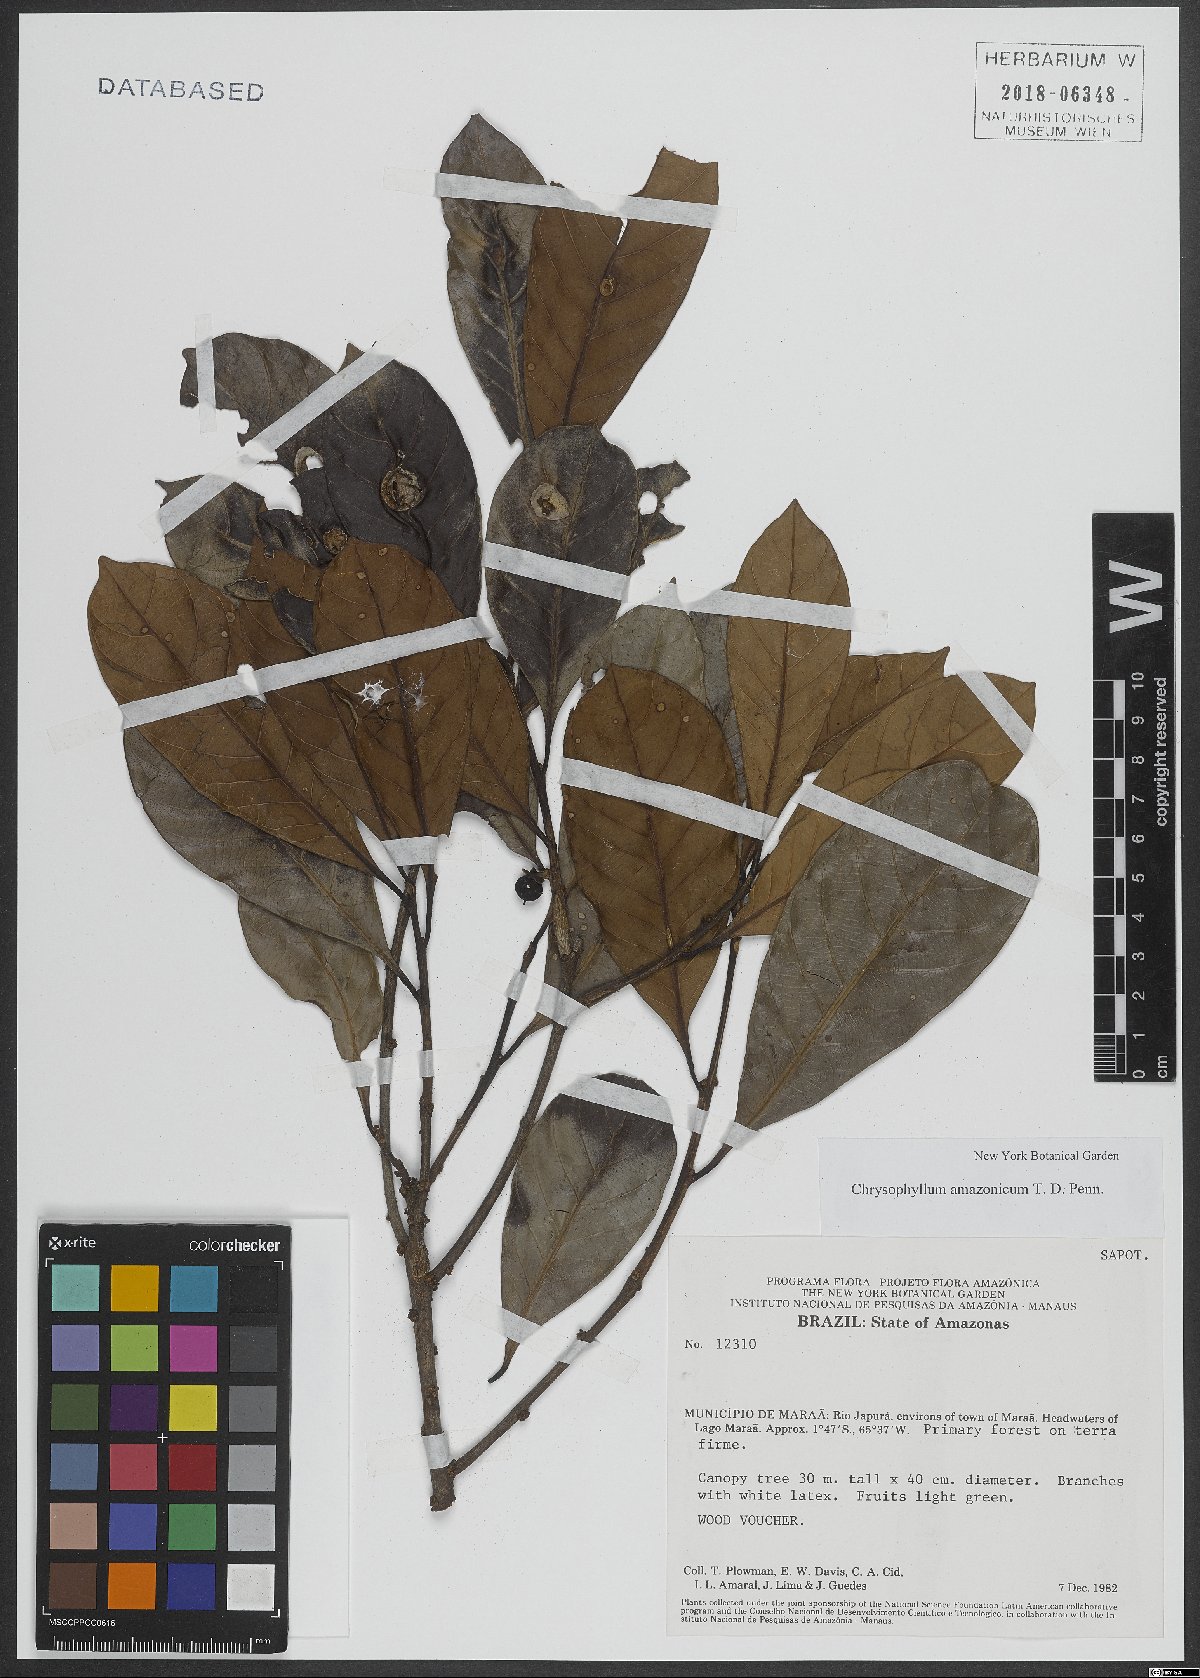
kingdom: Plantae
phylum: Tracheophyta
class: Magnoliopsida
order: Ericales
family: Sapotaceae
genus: Chrysophyllum
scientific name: Chrysophyllum amazonicum
